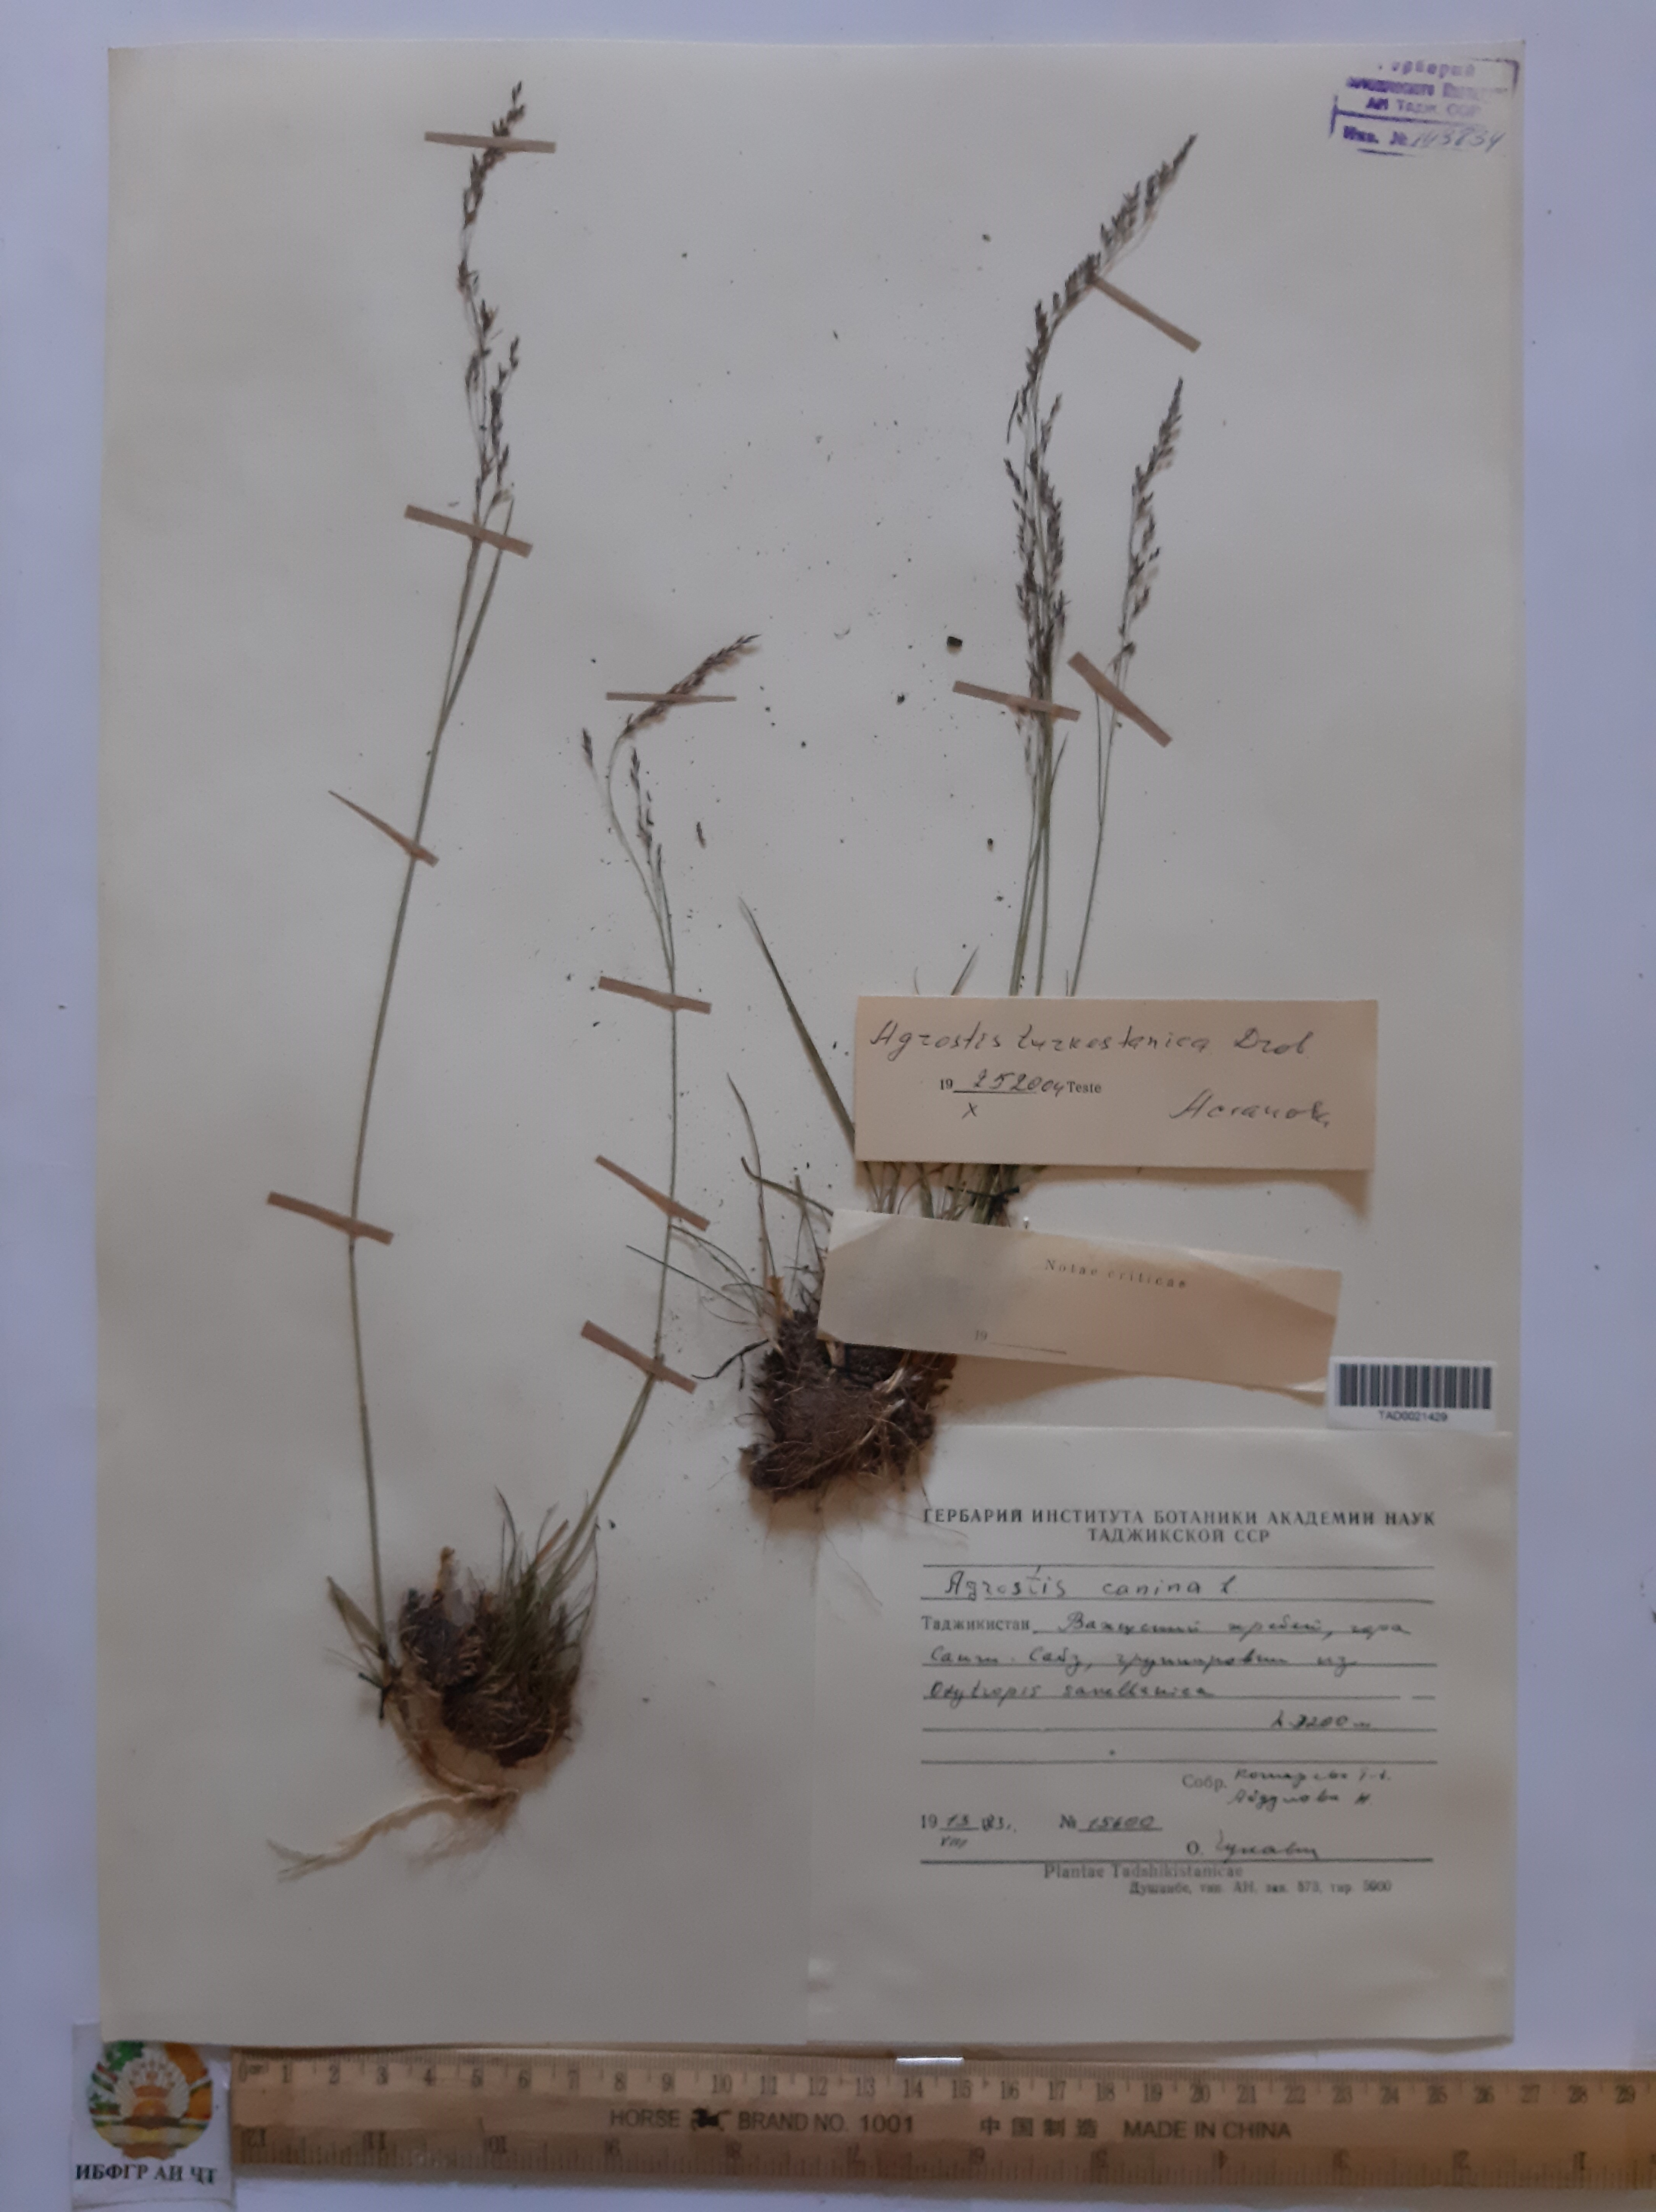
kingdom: Plantae
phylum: Tracheophyta
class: Liliopsida
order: Poales
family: Poaceae
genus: Agrostis
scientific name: Agrostis canina
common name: Velvet bent
